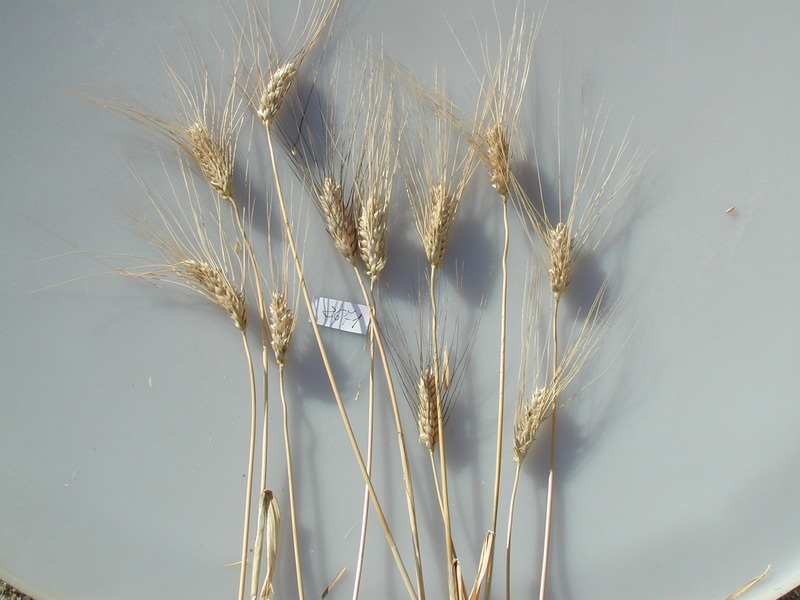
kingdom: Plantae
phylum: Tracheophyta
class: Liliopsida
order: Poales
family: Poaceae
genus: Triticum
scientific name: Triticum turgidum
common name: Wheat
